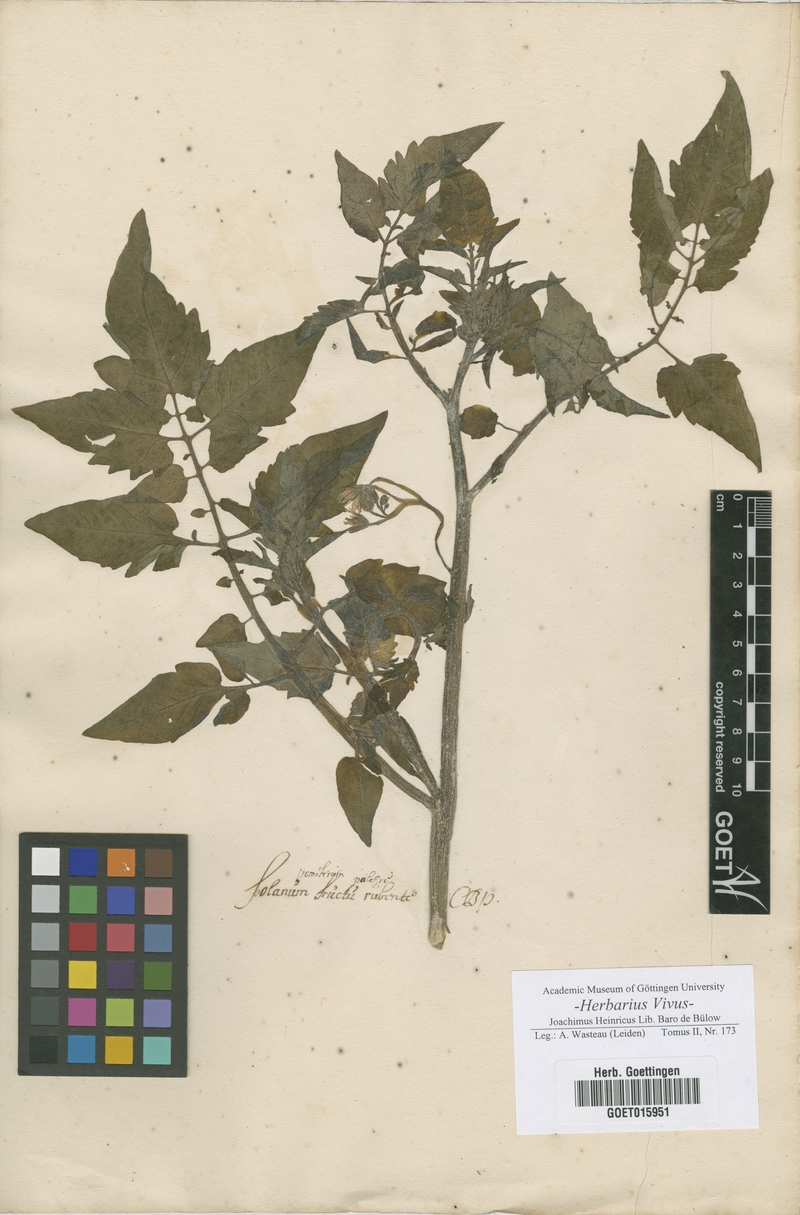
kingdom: Plantae
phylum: Tracheophyta
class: Magnoliopsida
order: Solanales
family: Solanaceae
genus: Solanum
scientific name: Solanum
